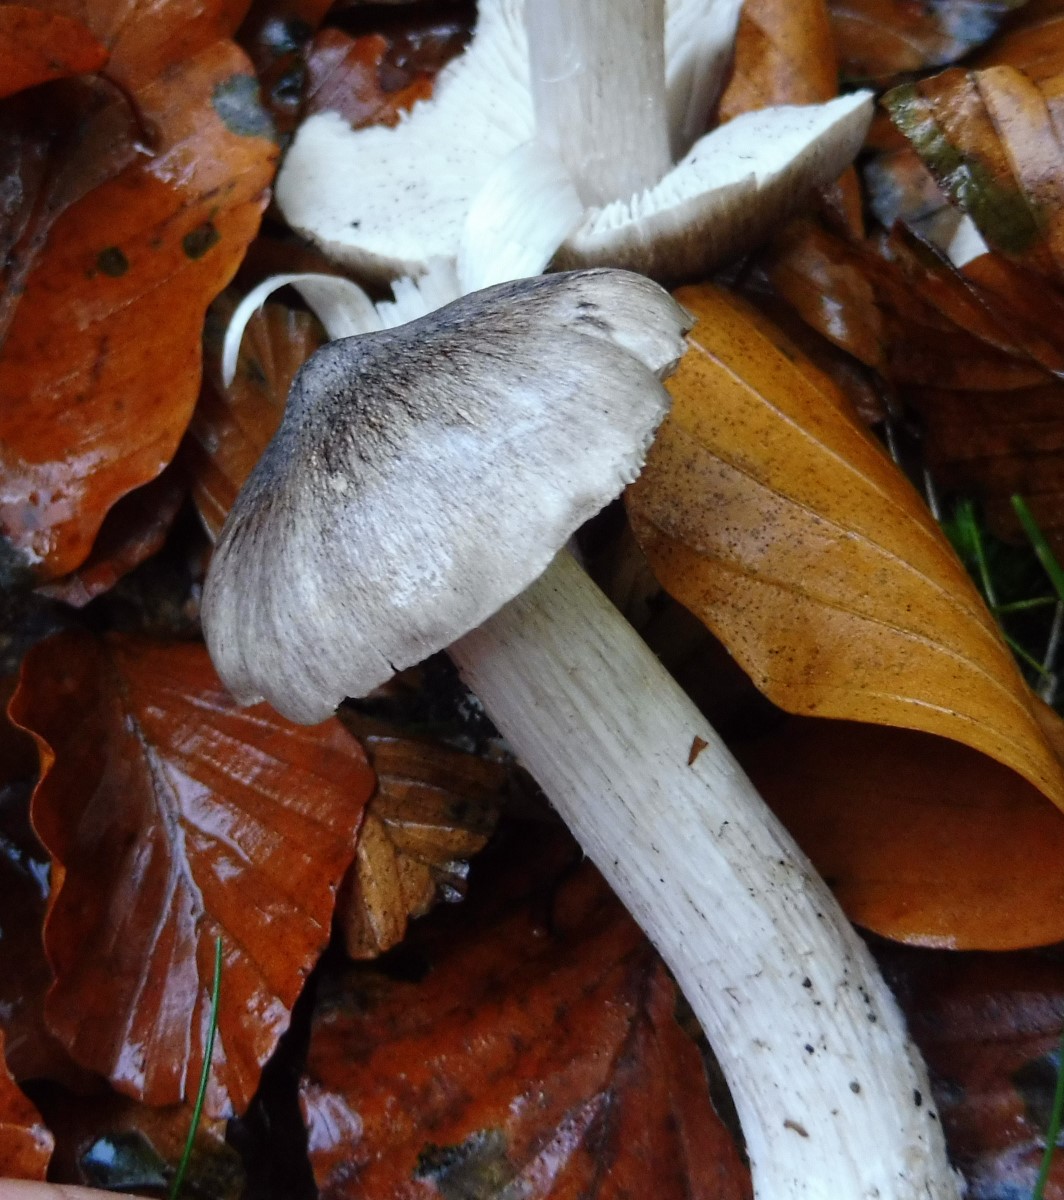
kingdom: Fungi
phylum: Basidiomycota
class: Agaricomycetes
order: Agaricales
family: Tricholomataceae
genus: Tricholoma
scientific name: Tricholoma sciodes
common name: stribet ridderhat
